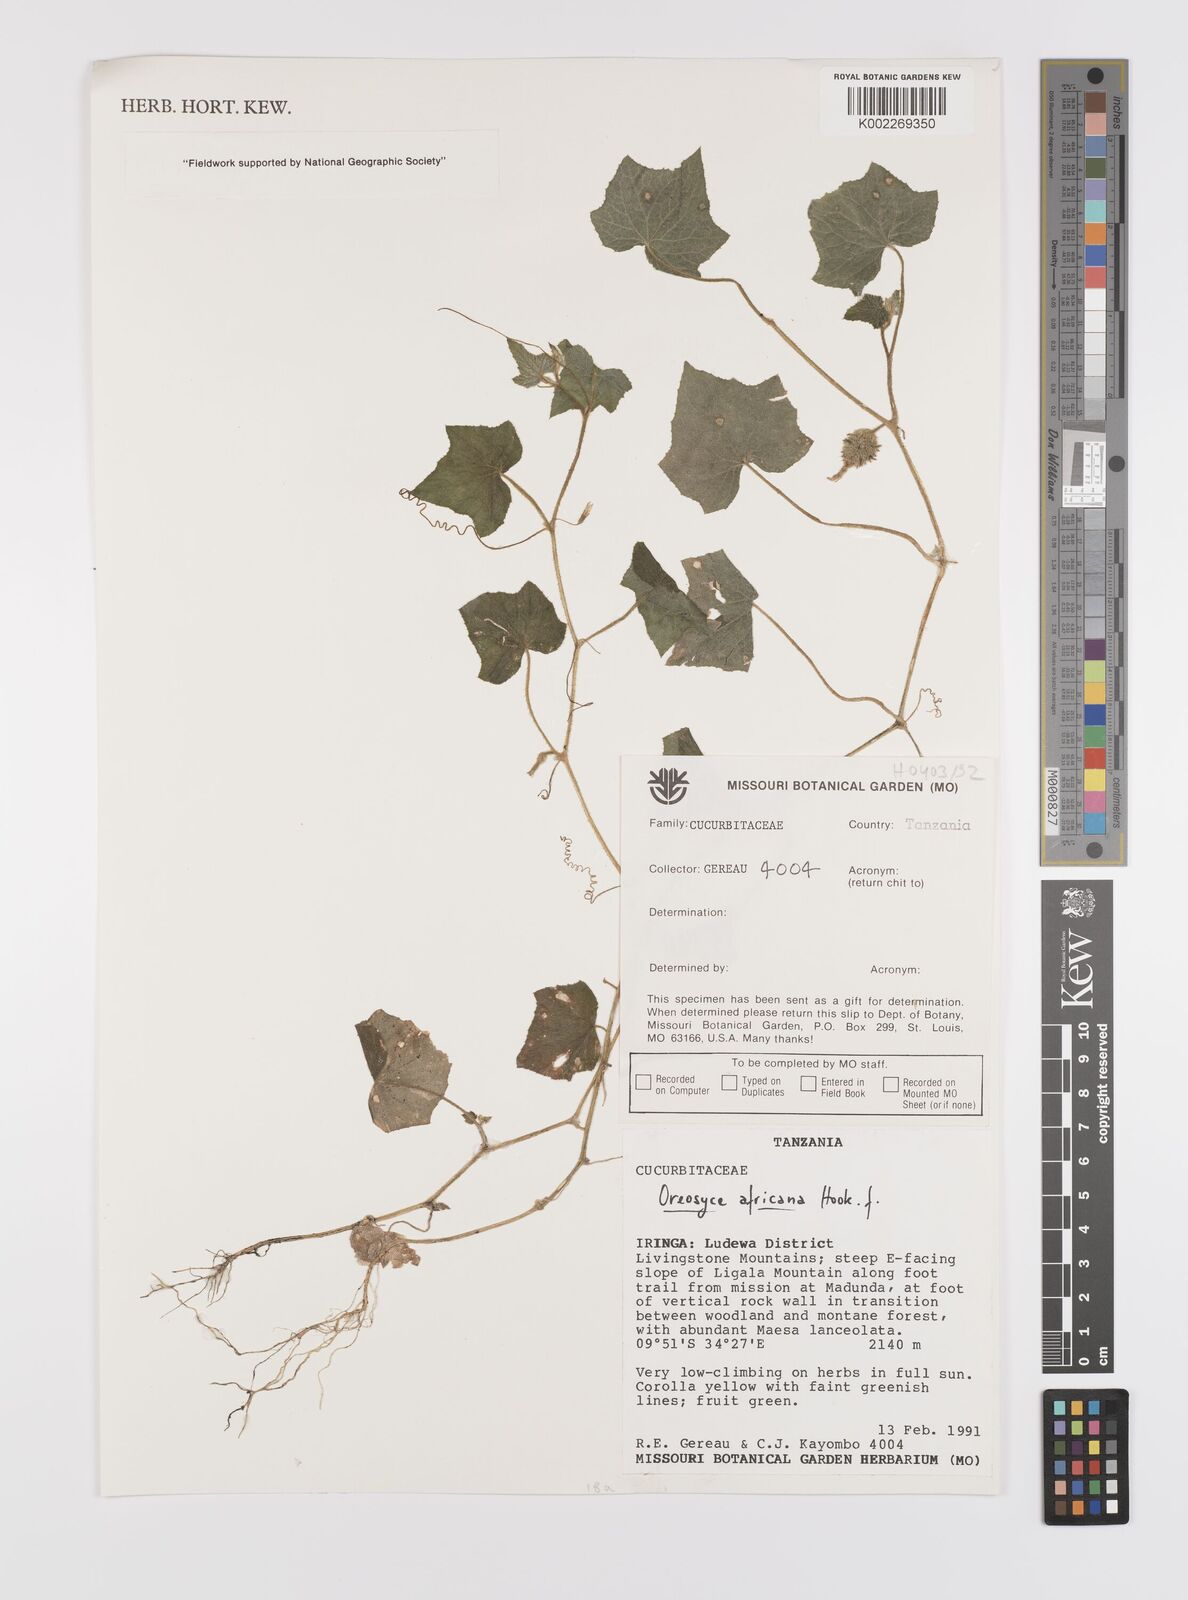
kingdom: Plantae
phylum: Tracheophyta
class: Magnoliopsida
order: Cucurbitales
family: Cucurbitaceae
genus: Cucumis
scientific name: Cucumis oreosyce
